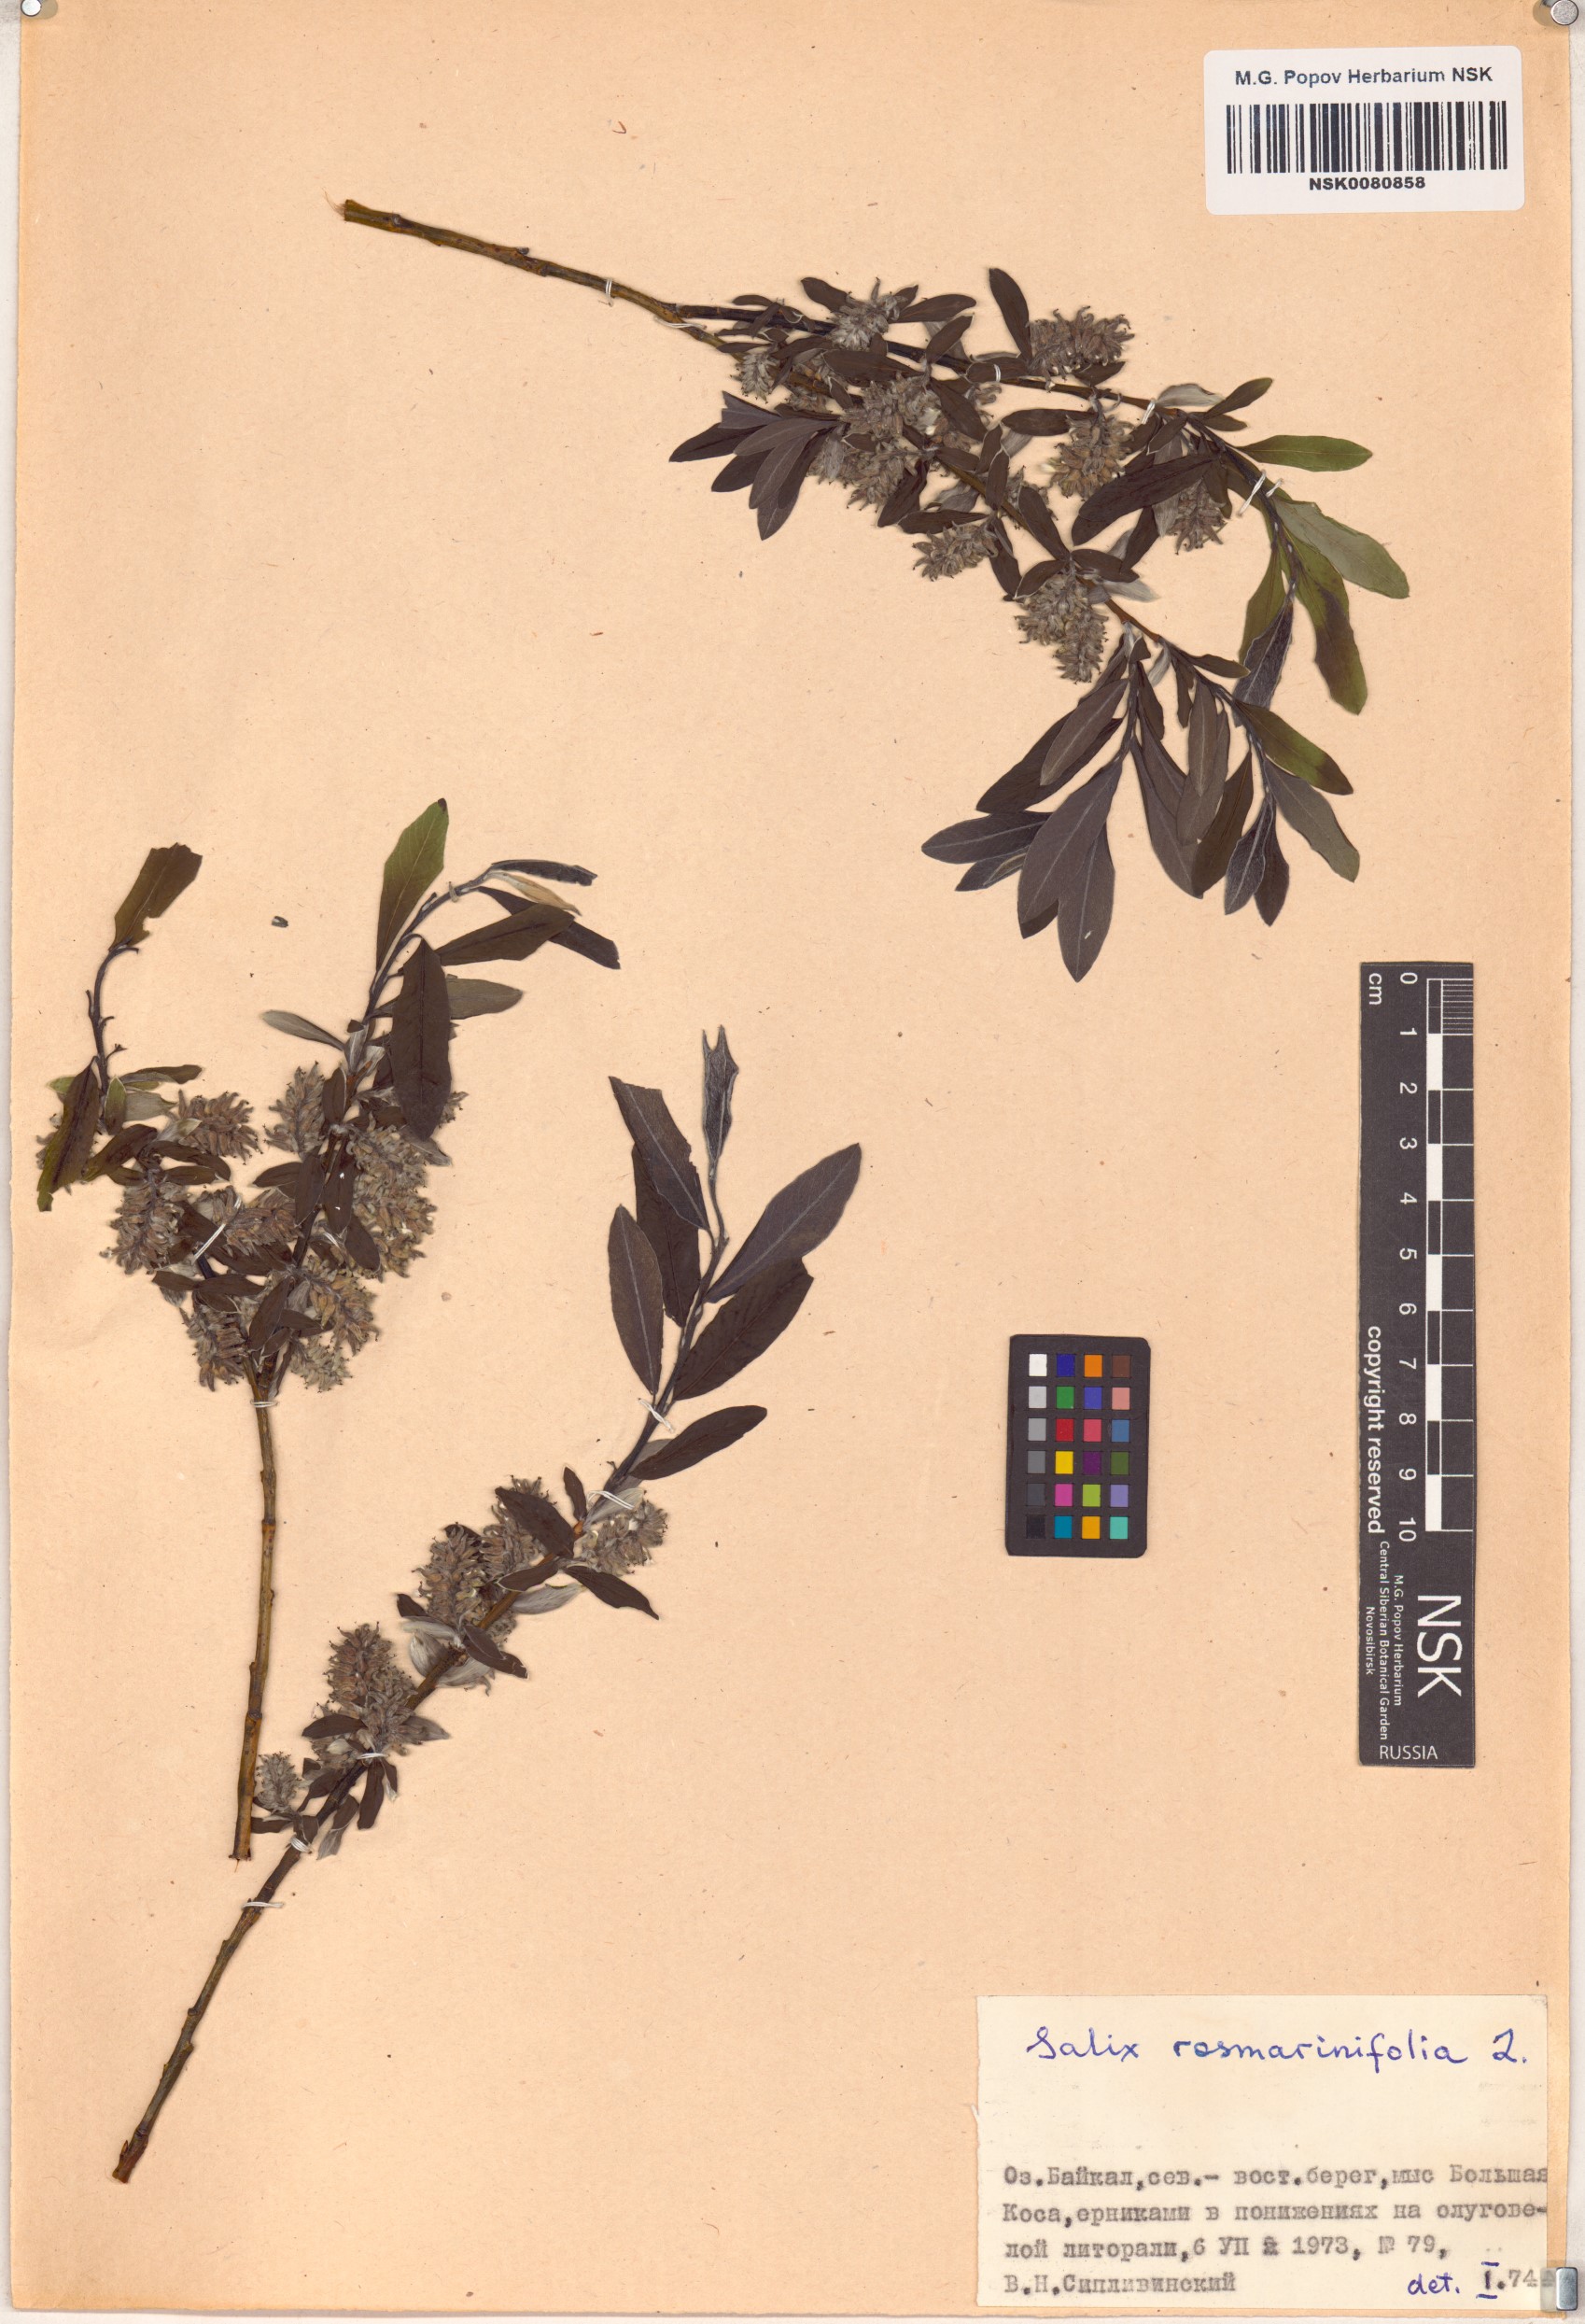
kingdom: Plantae
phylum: Tracheophyta
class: Magnoliopsida
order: Malpighiales
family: Salicaceae
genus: Salix
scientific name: Salix rosmarinifolia
